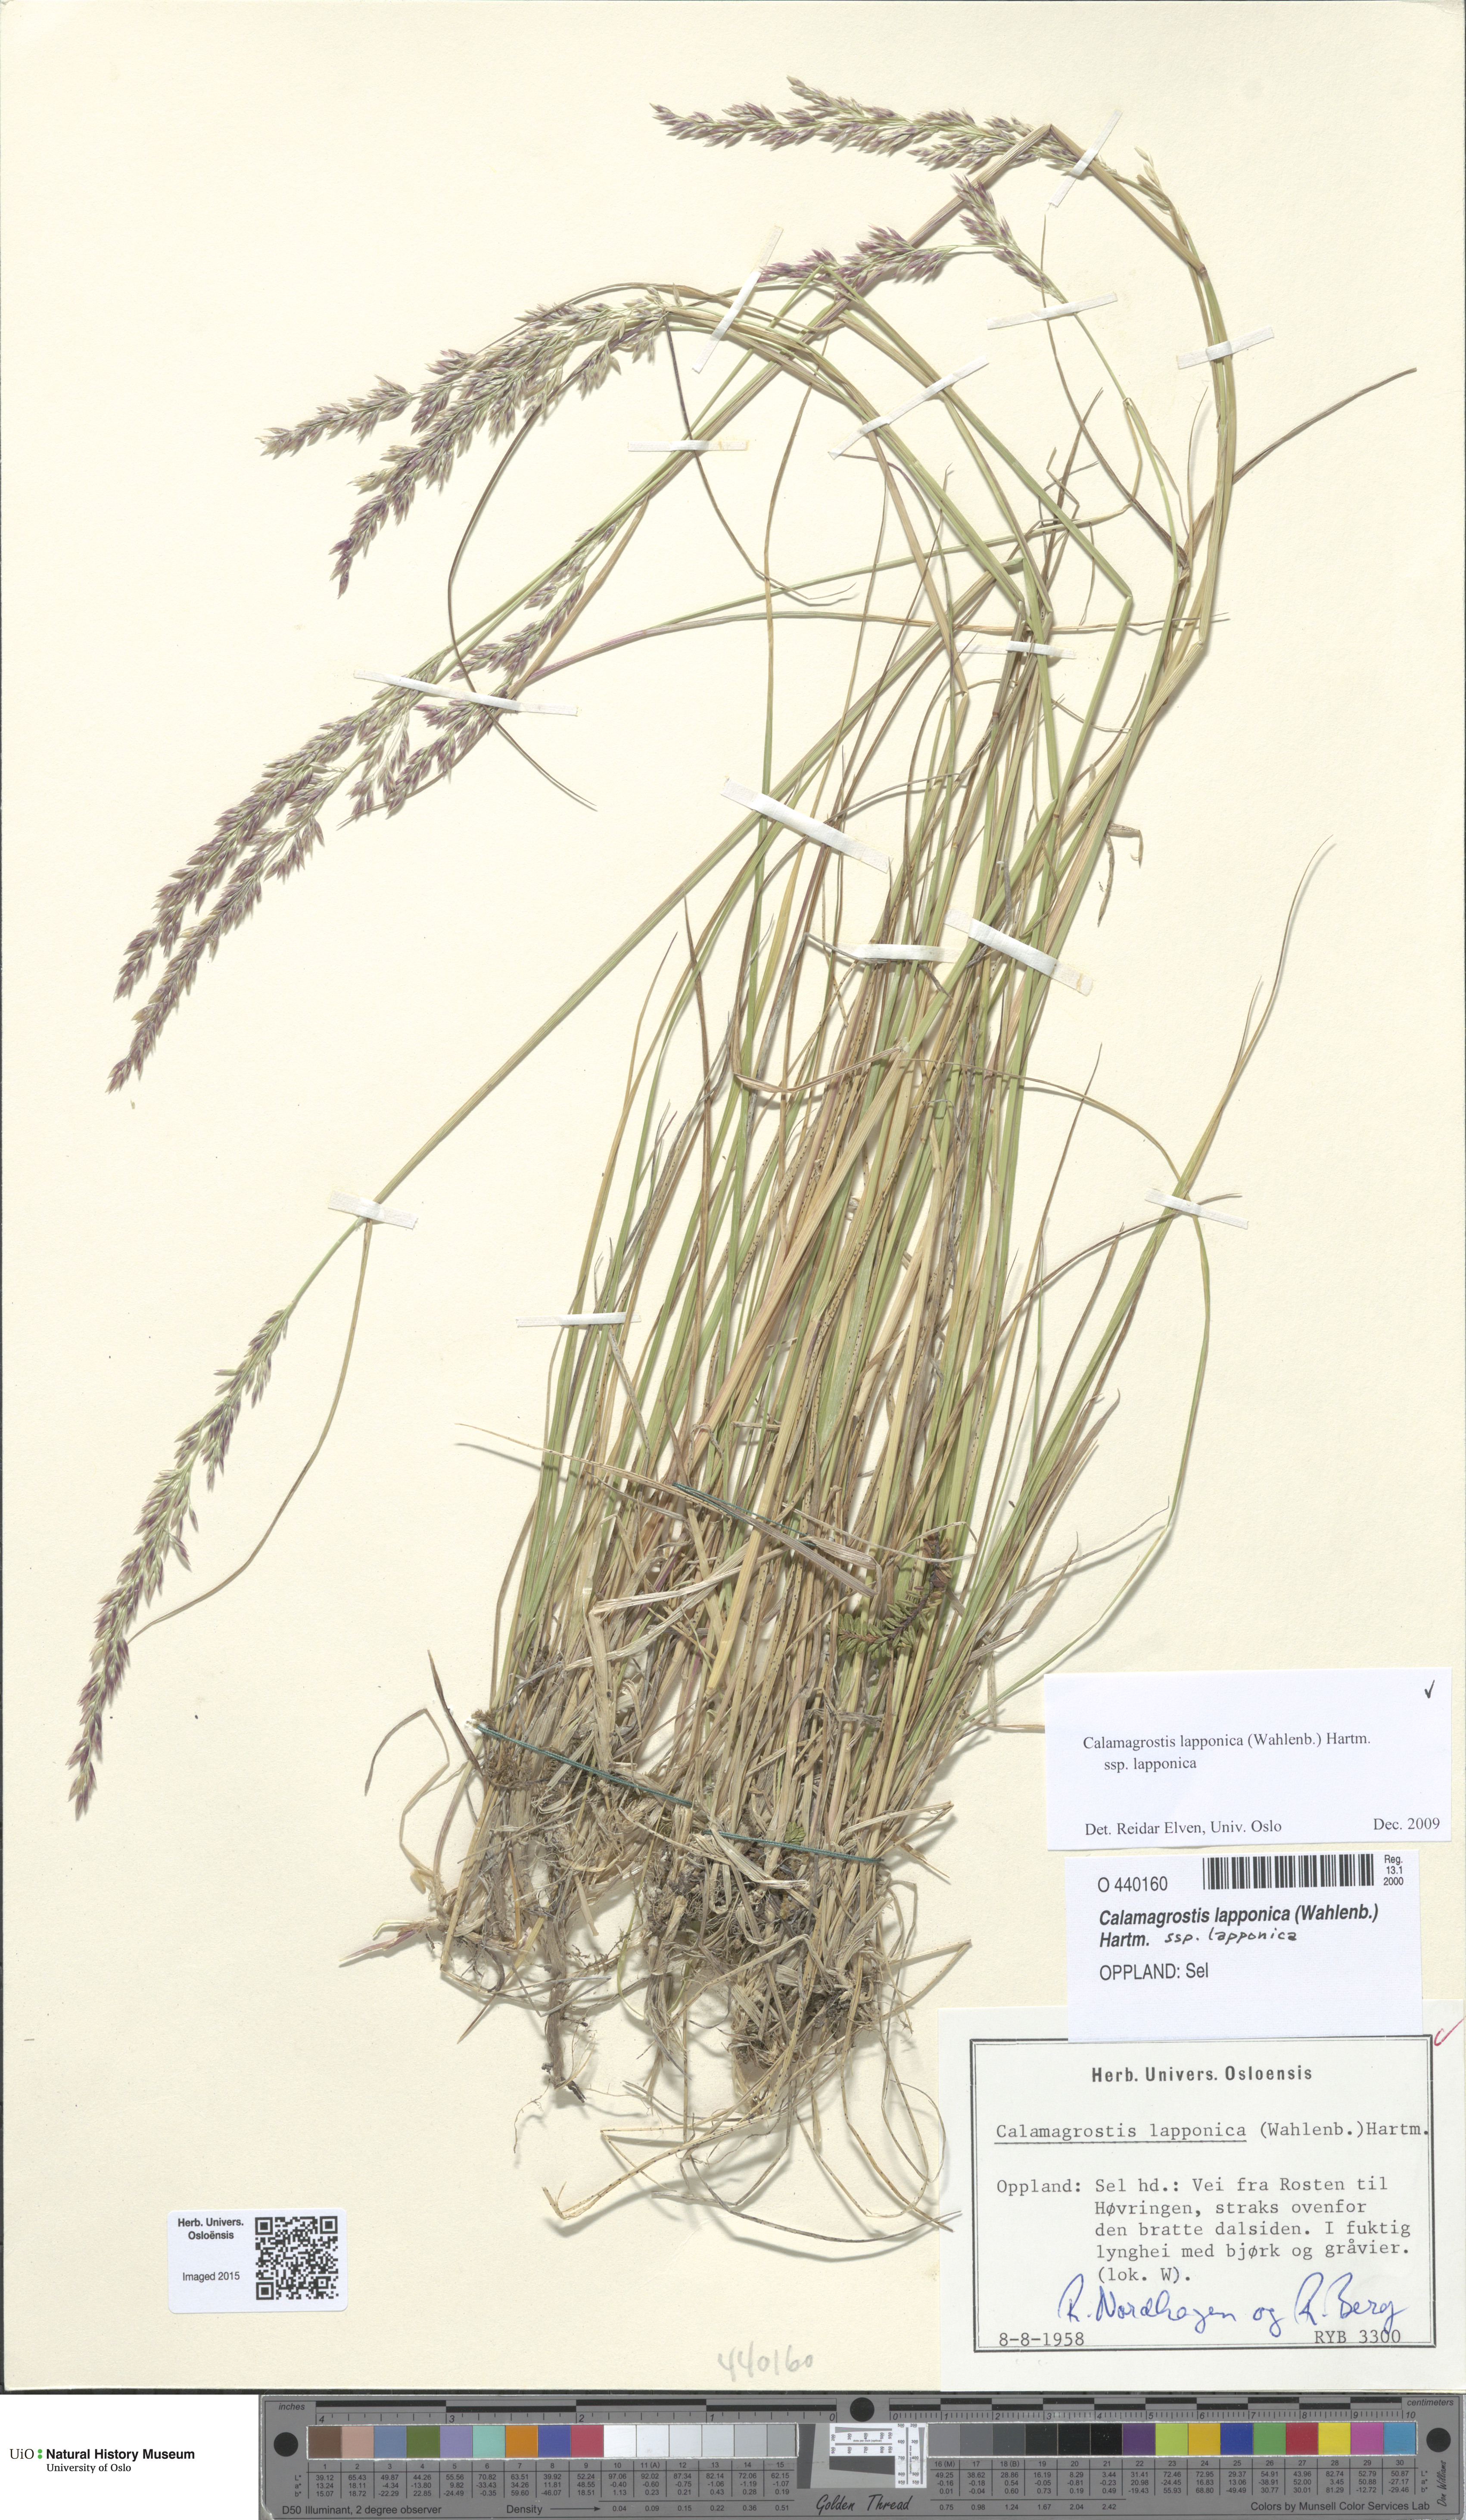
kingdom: Plantae
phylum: Tracheophyta
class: Liliopsida
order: Poales
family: Poaceae
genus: Calamagrostis
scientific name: Calamagrostis lapponica
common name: Lapland reedgrass
